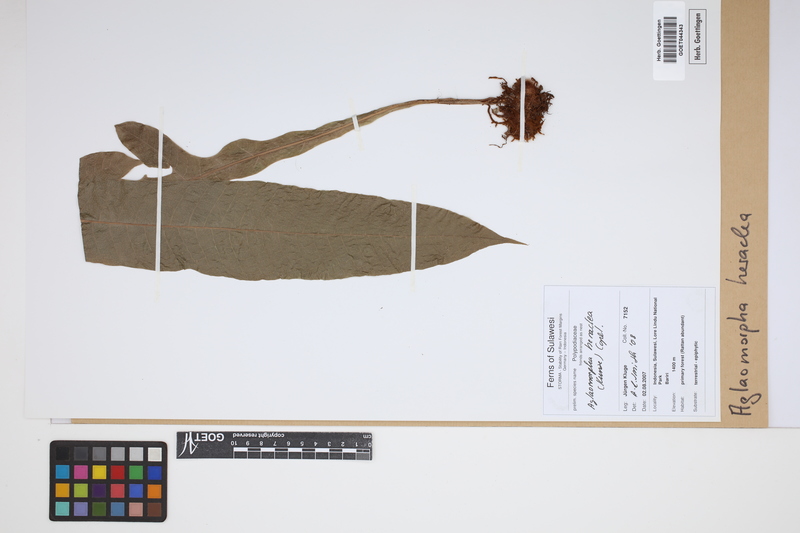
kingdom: Plantae
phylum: Tracheophyta
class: Polypodiopsida
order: Polypodiales
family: Polypodiaceae
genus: Drynaria
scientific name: Drynaria heraclea
